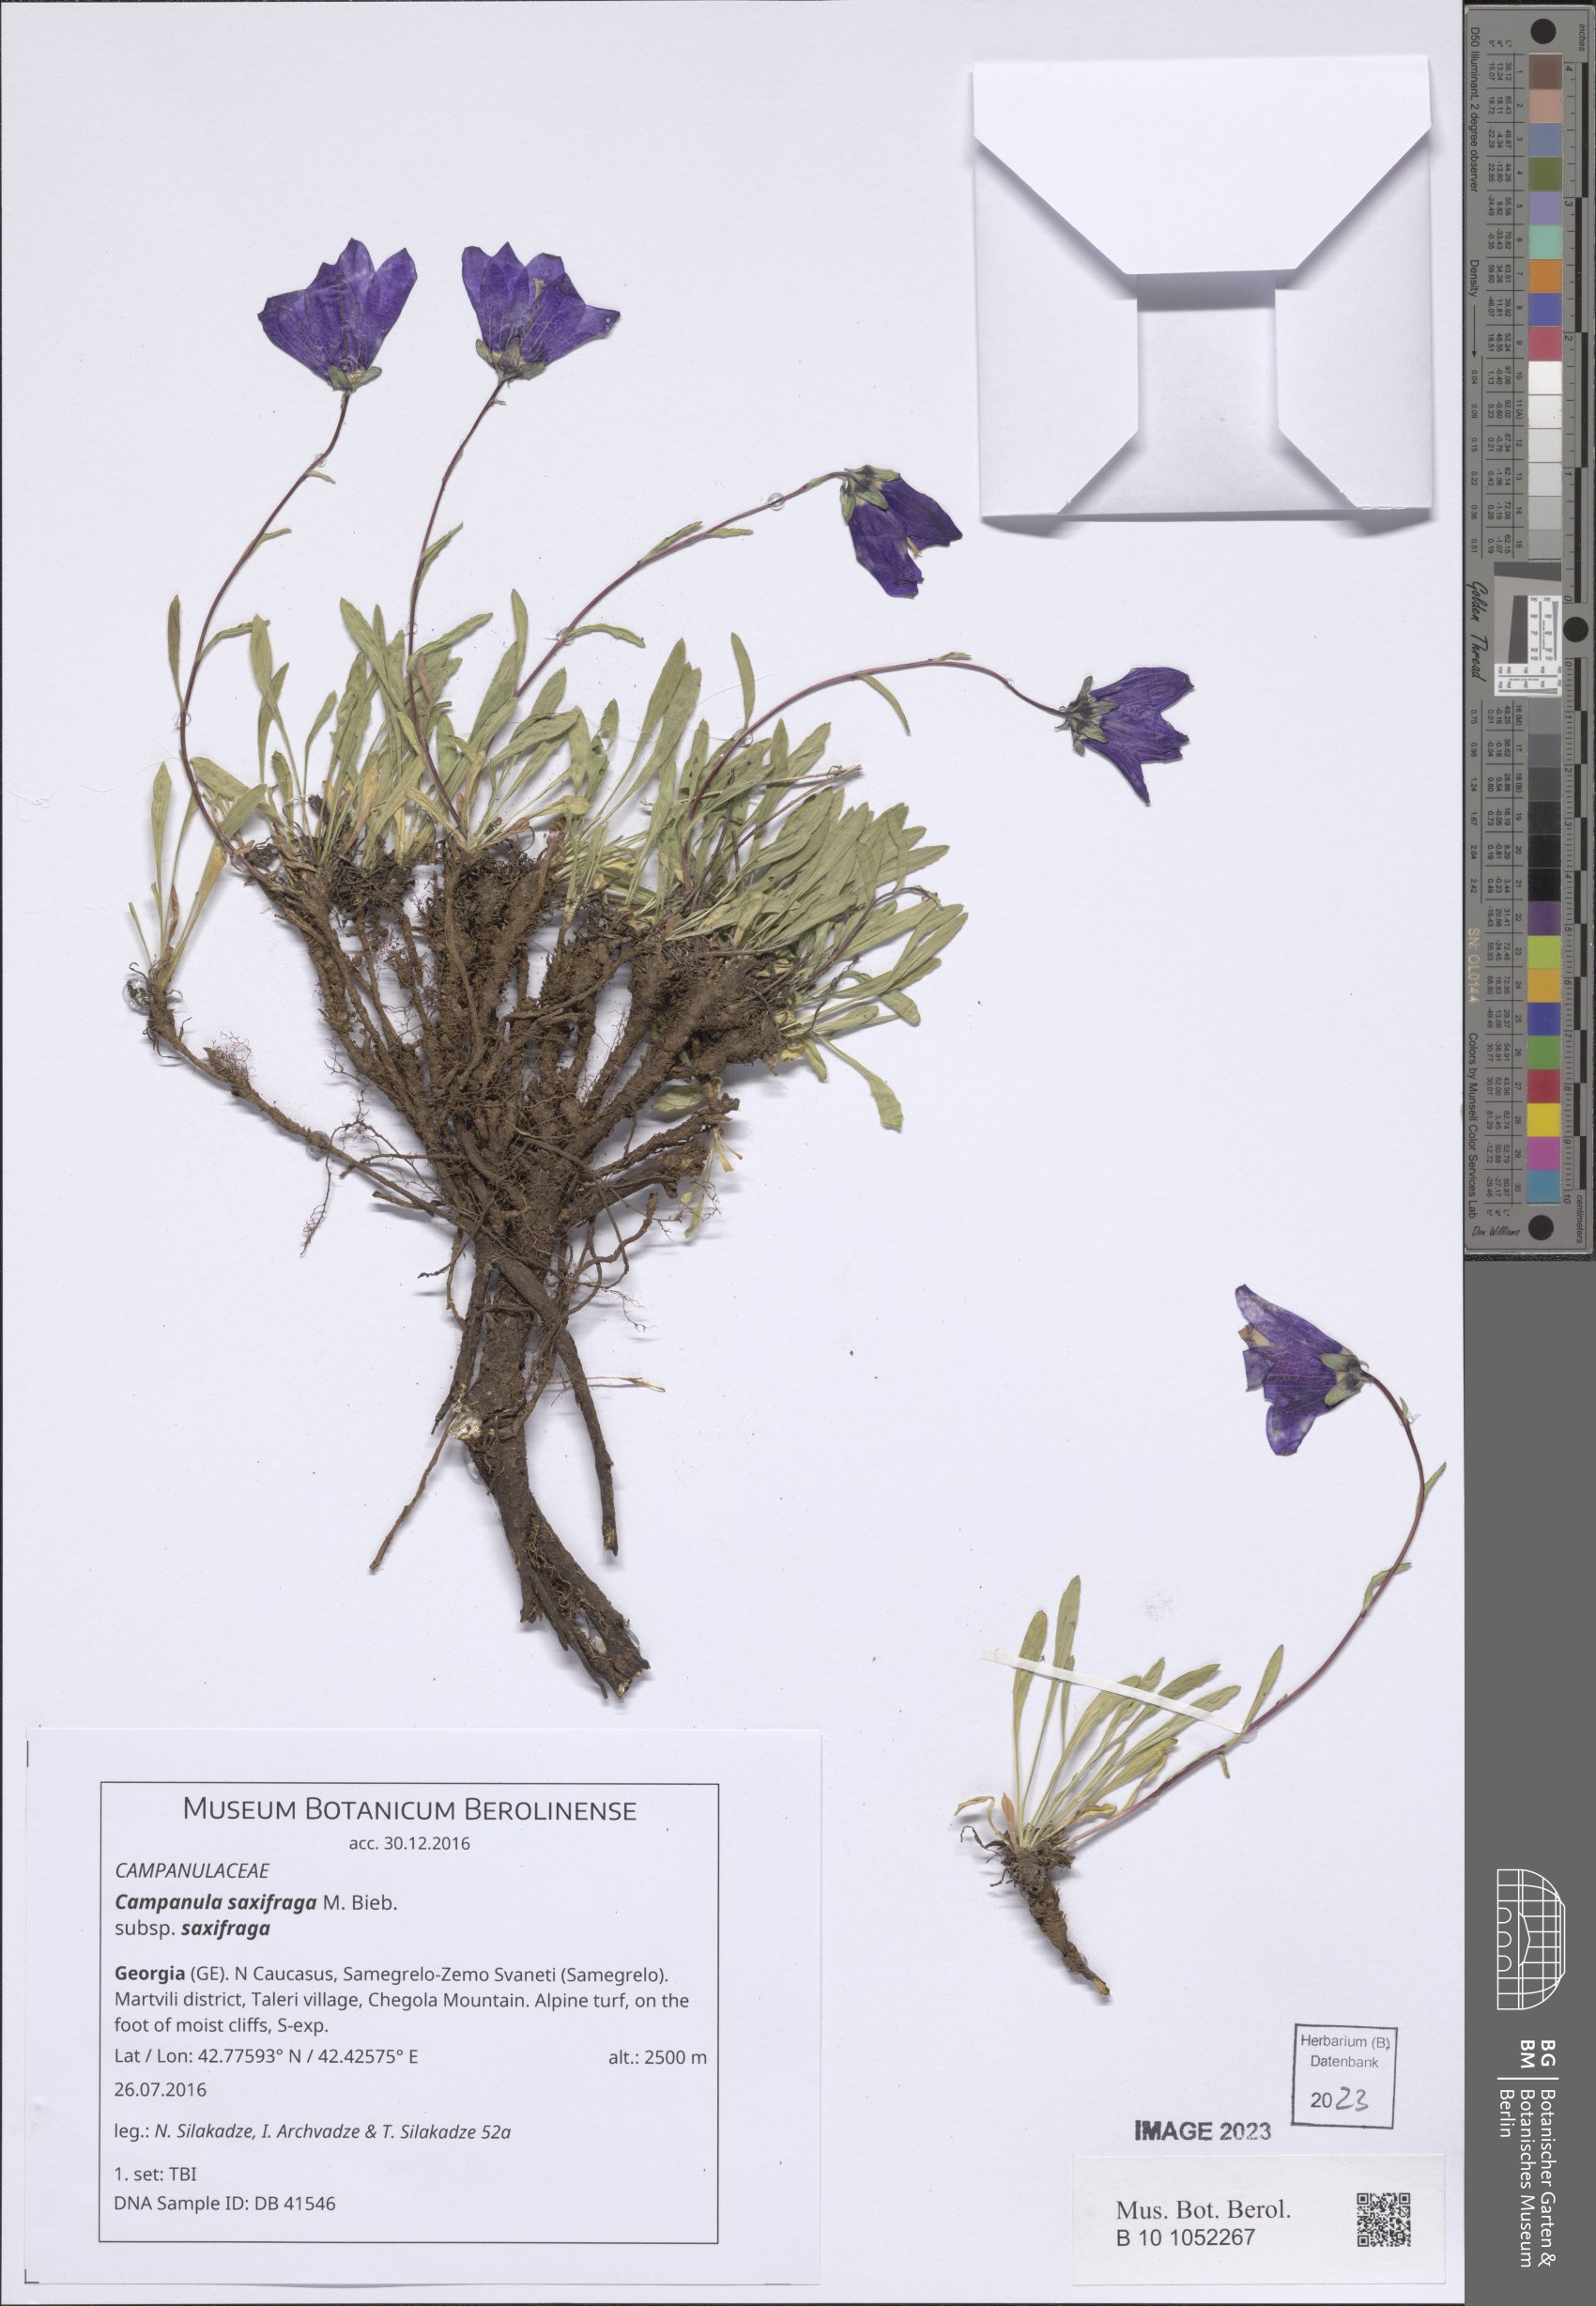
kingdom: Plantae
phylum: Tracheophyta
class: Magnoliopsida
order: Asterales
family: Campanulaceae
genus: Campanula
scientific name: Campanula saxifraga
